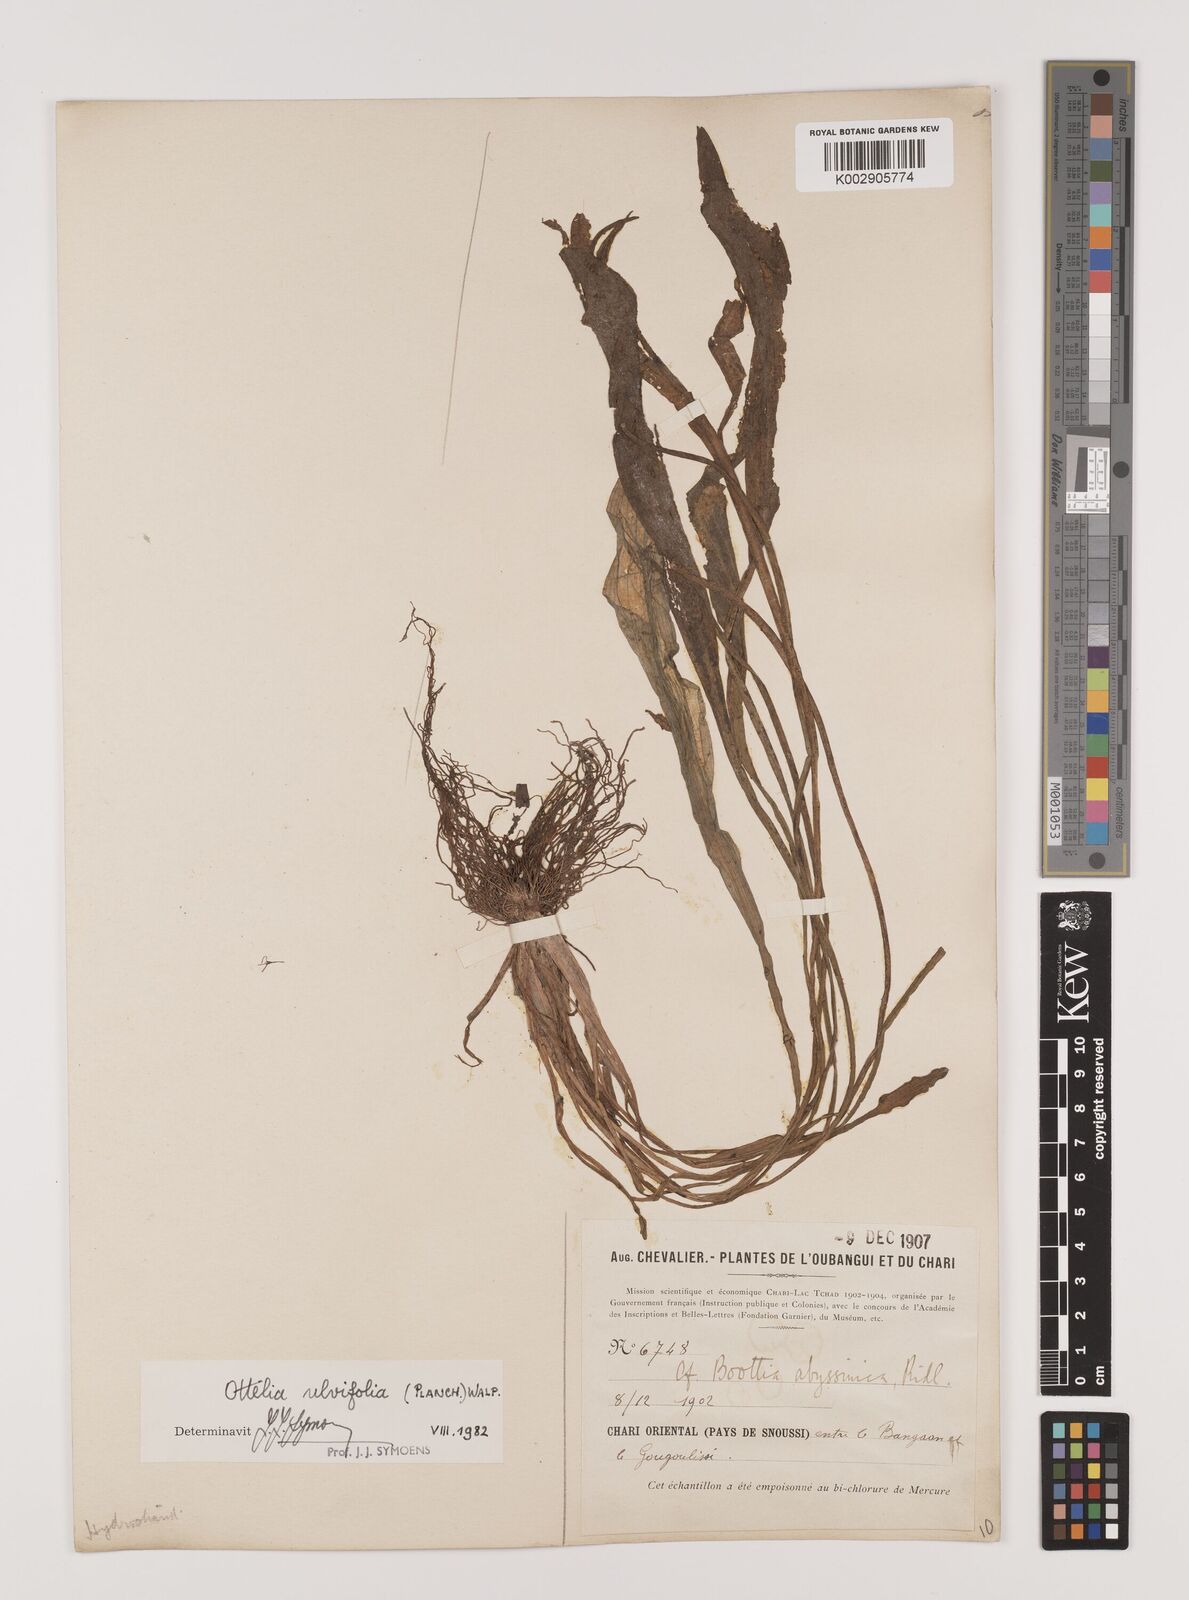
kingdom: Plantae
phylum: Tracheophyta
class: Liliopsida
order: Alismatales
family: Hydrocharitaceae
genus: Ottelia
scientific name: Ottelia ulvifolia
